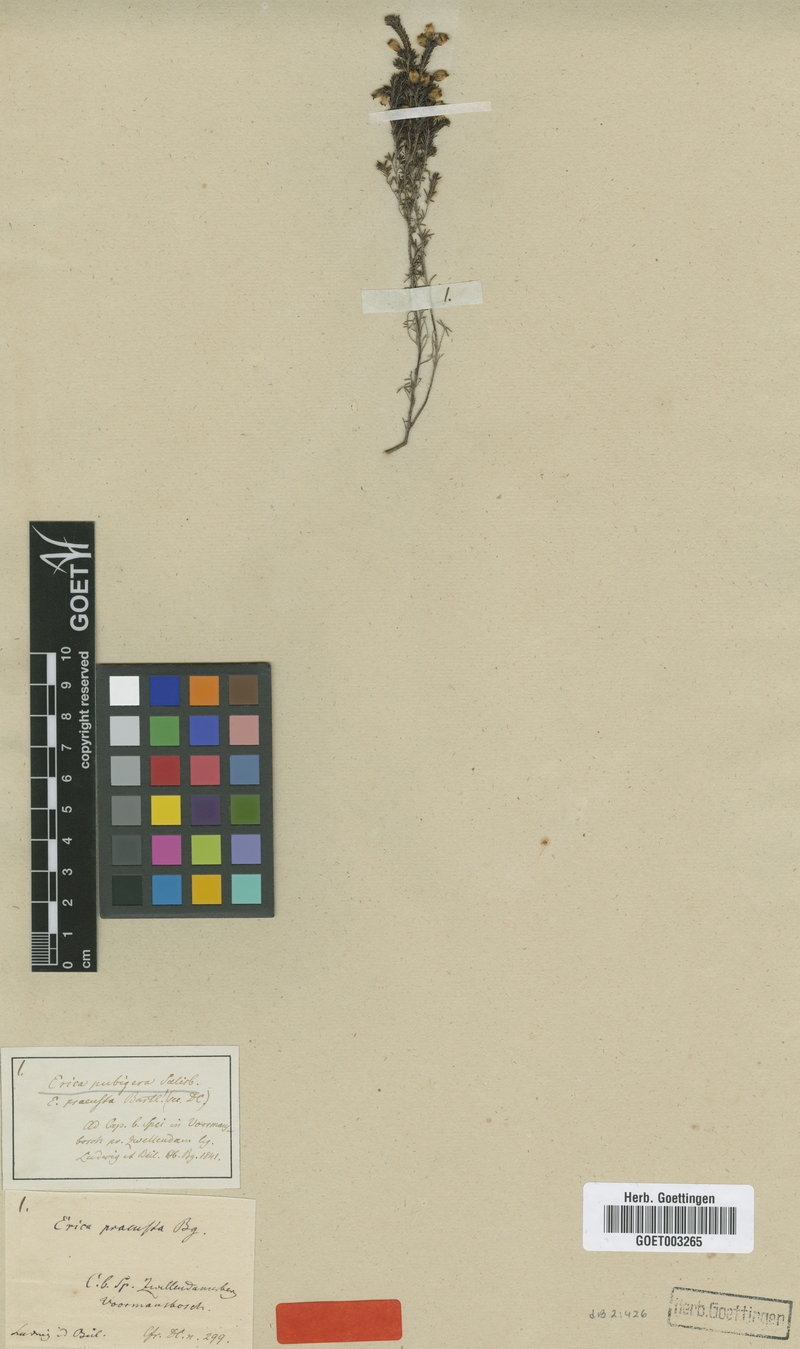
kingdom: Plantae
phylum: Tracheophyta
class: Magnoliopsida
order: Ericales
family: Ericaceae
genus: Erica
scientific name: Erica pubigera
